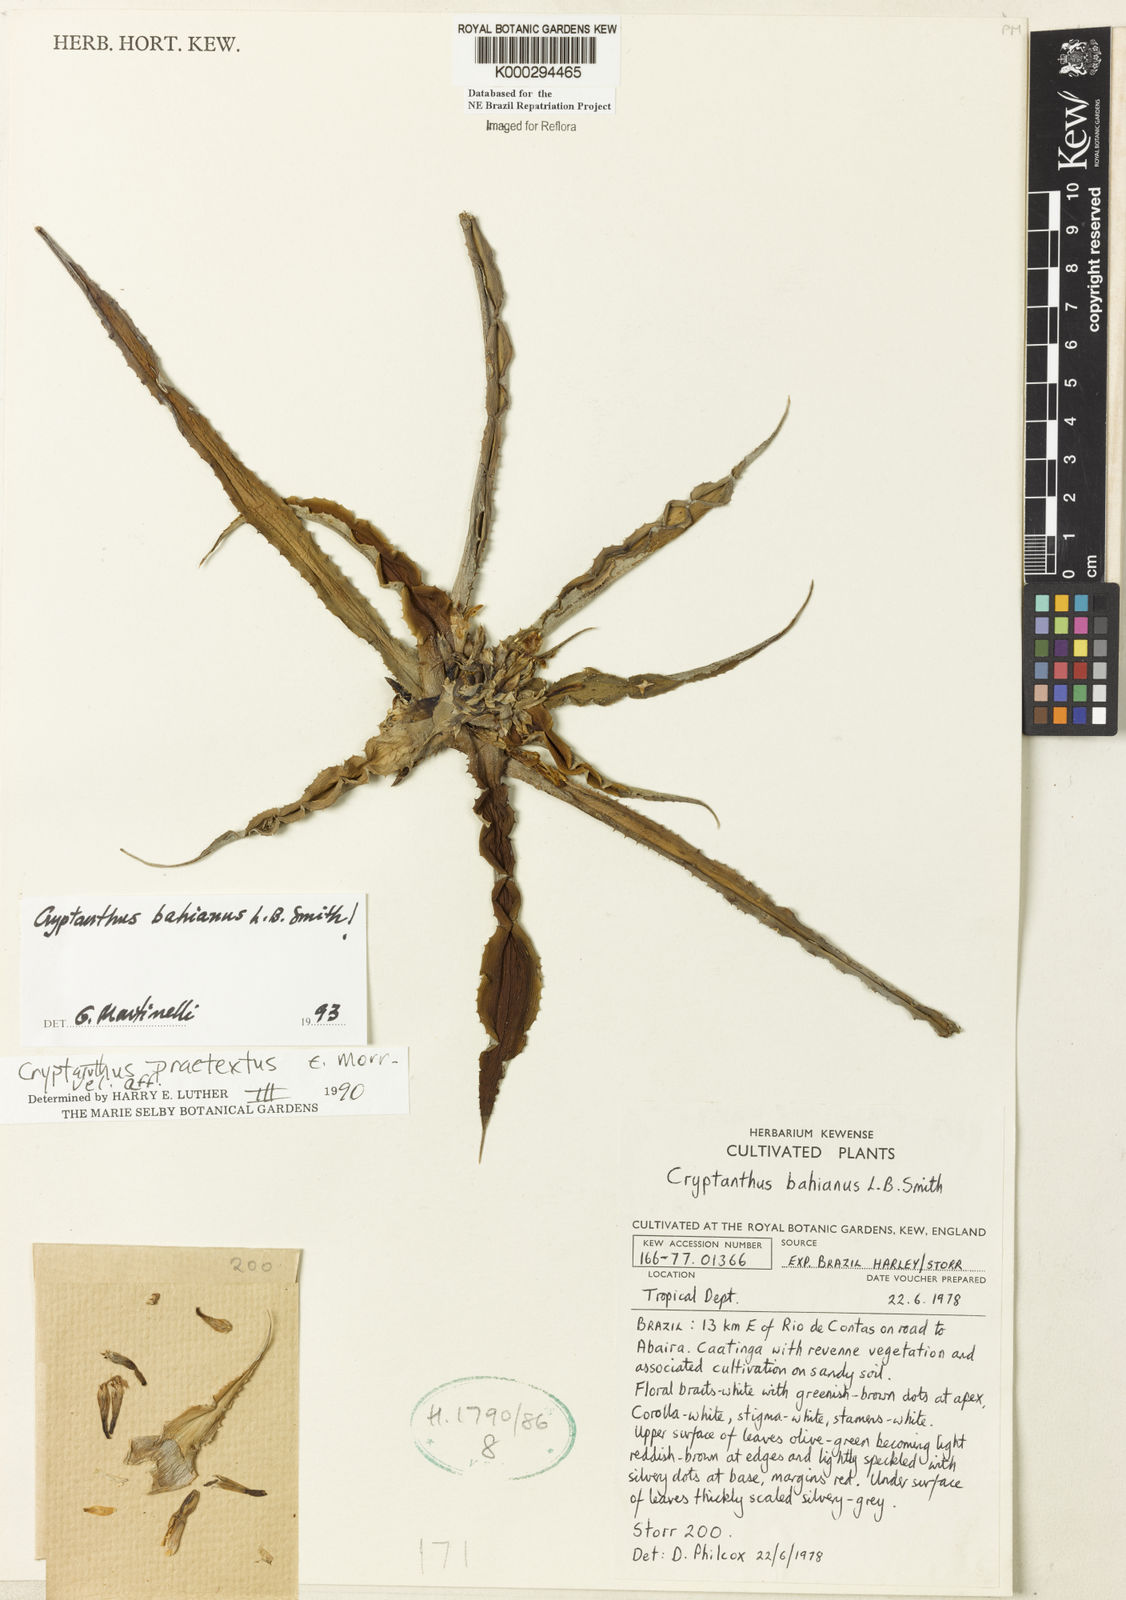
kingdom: Plantae
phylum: Tracheophyta
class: Liliopsida
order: Poales
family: Bromeliaceae
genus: Cryptanthus
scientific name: Cryptanthus bahianus
